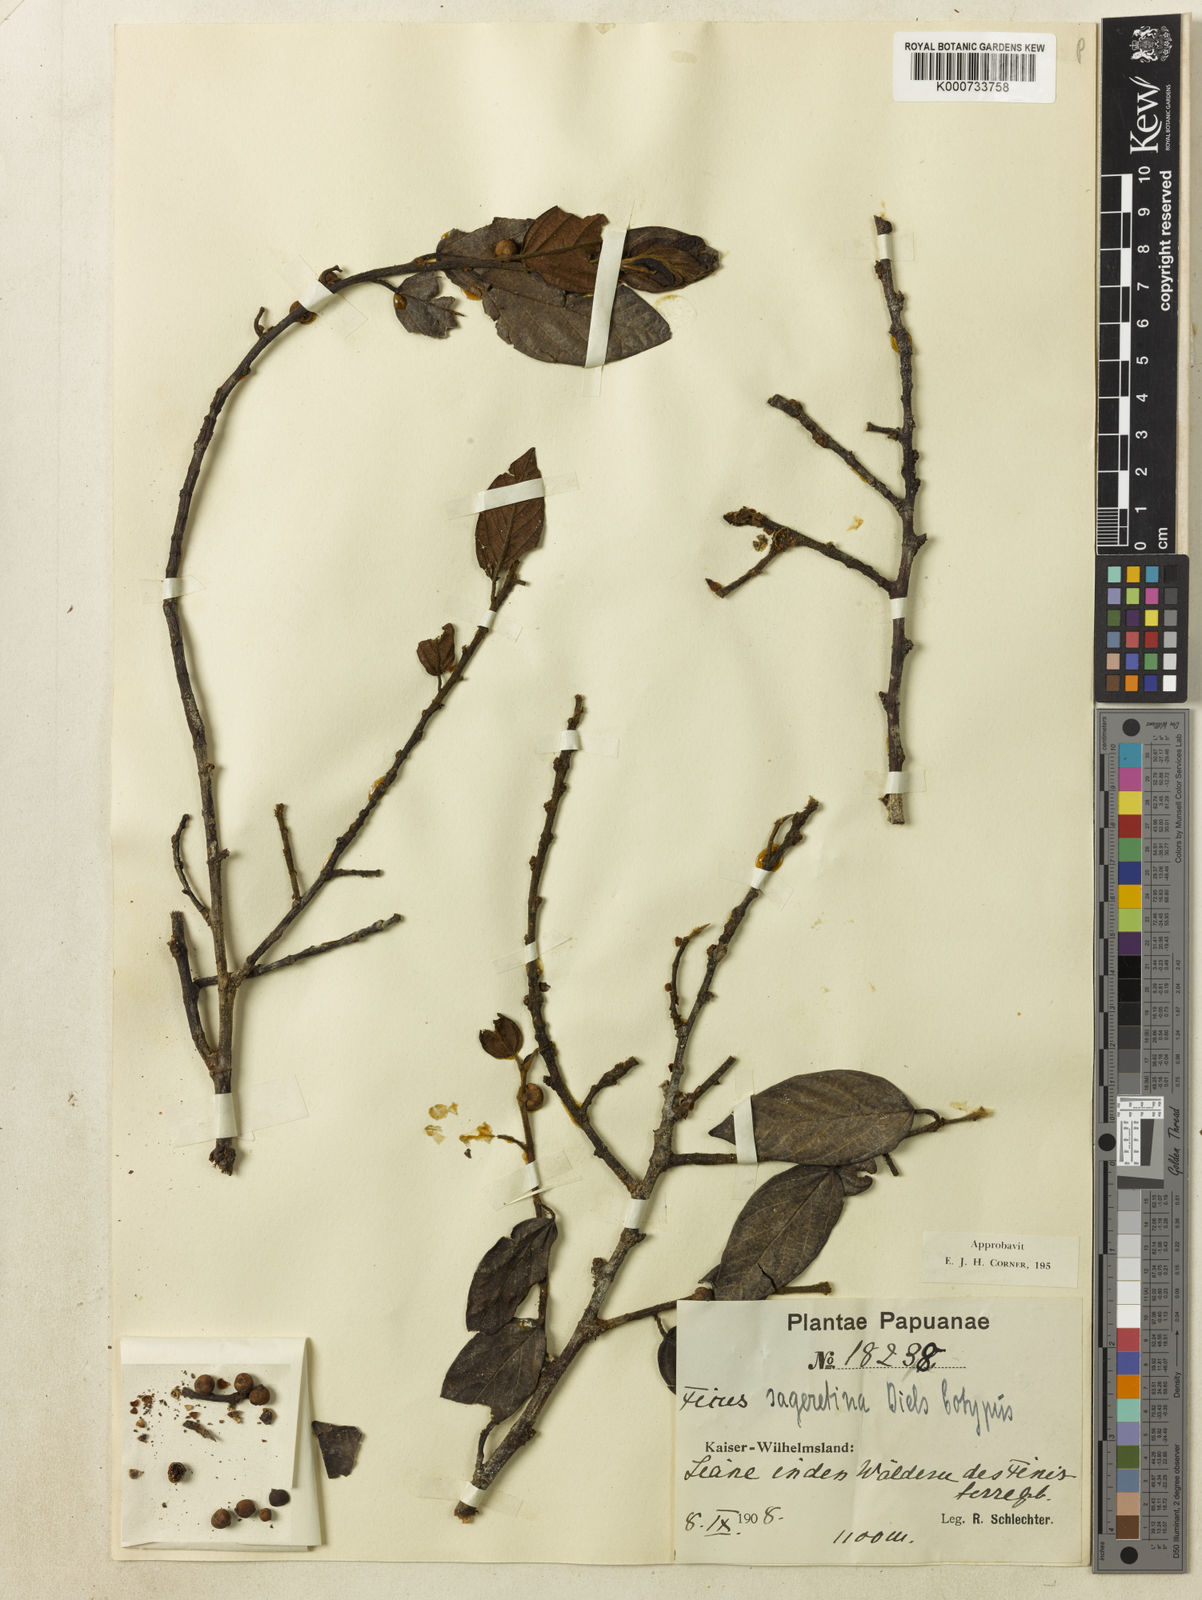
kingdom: Plantae
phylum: Tracheophyta
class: Magnoliopsida
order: Rosales
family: Moraceae
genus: Ficus
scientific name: Ficus sageretina
